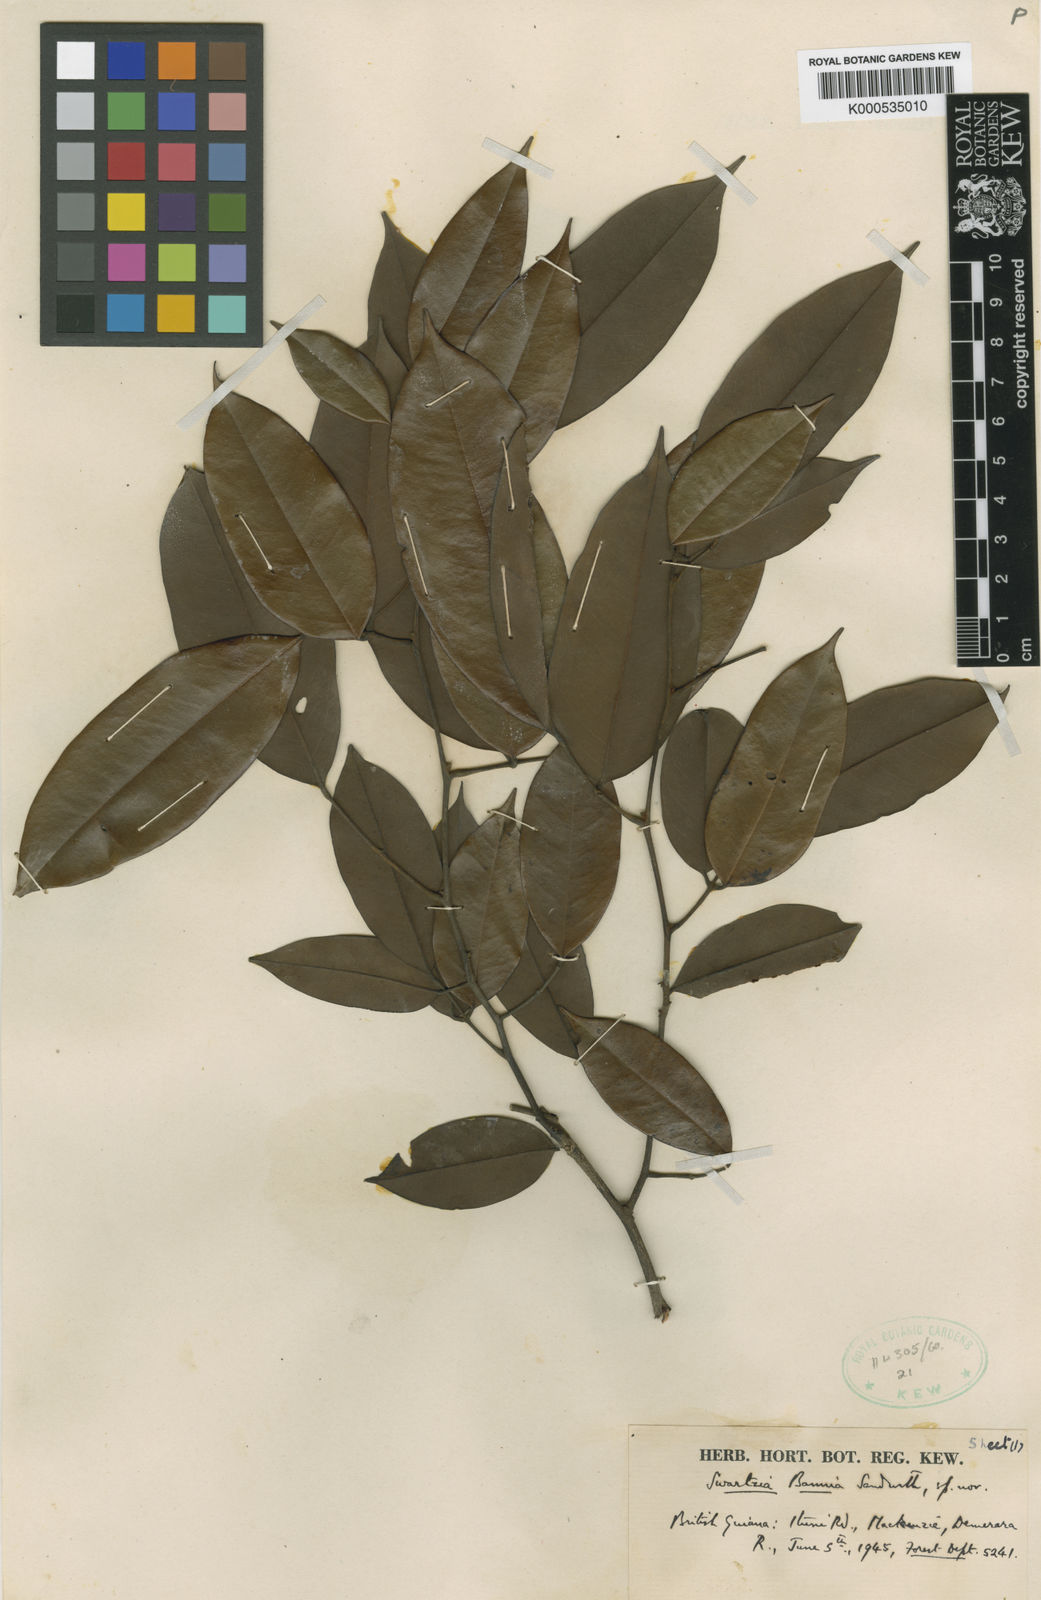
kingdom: Plantae
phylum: Tracheophyta
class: Magnoliopsida
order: Fabales
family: Fabaceae
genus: Swartzia
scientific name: Swartzia bannia
